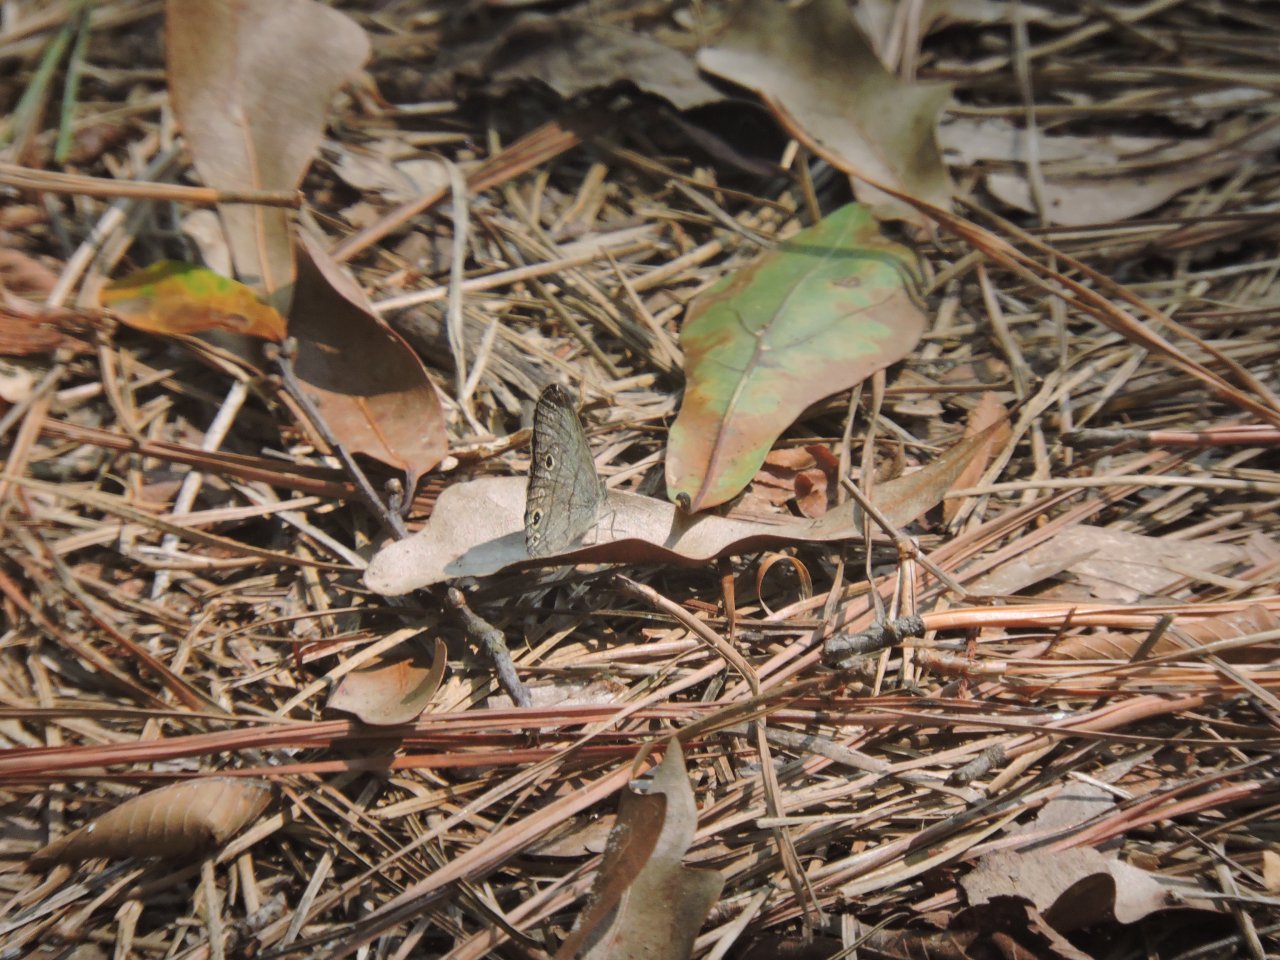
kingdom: Animalia
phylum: Arthropoda
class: Insecta
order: Lepidoptera
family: Nymphalidae
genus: Hermeuptychia
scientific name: Hermeuptychia hermes
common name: Carolina Satyr
